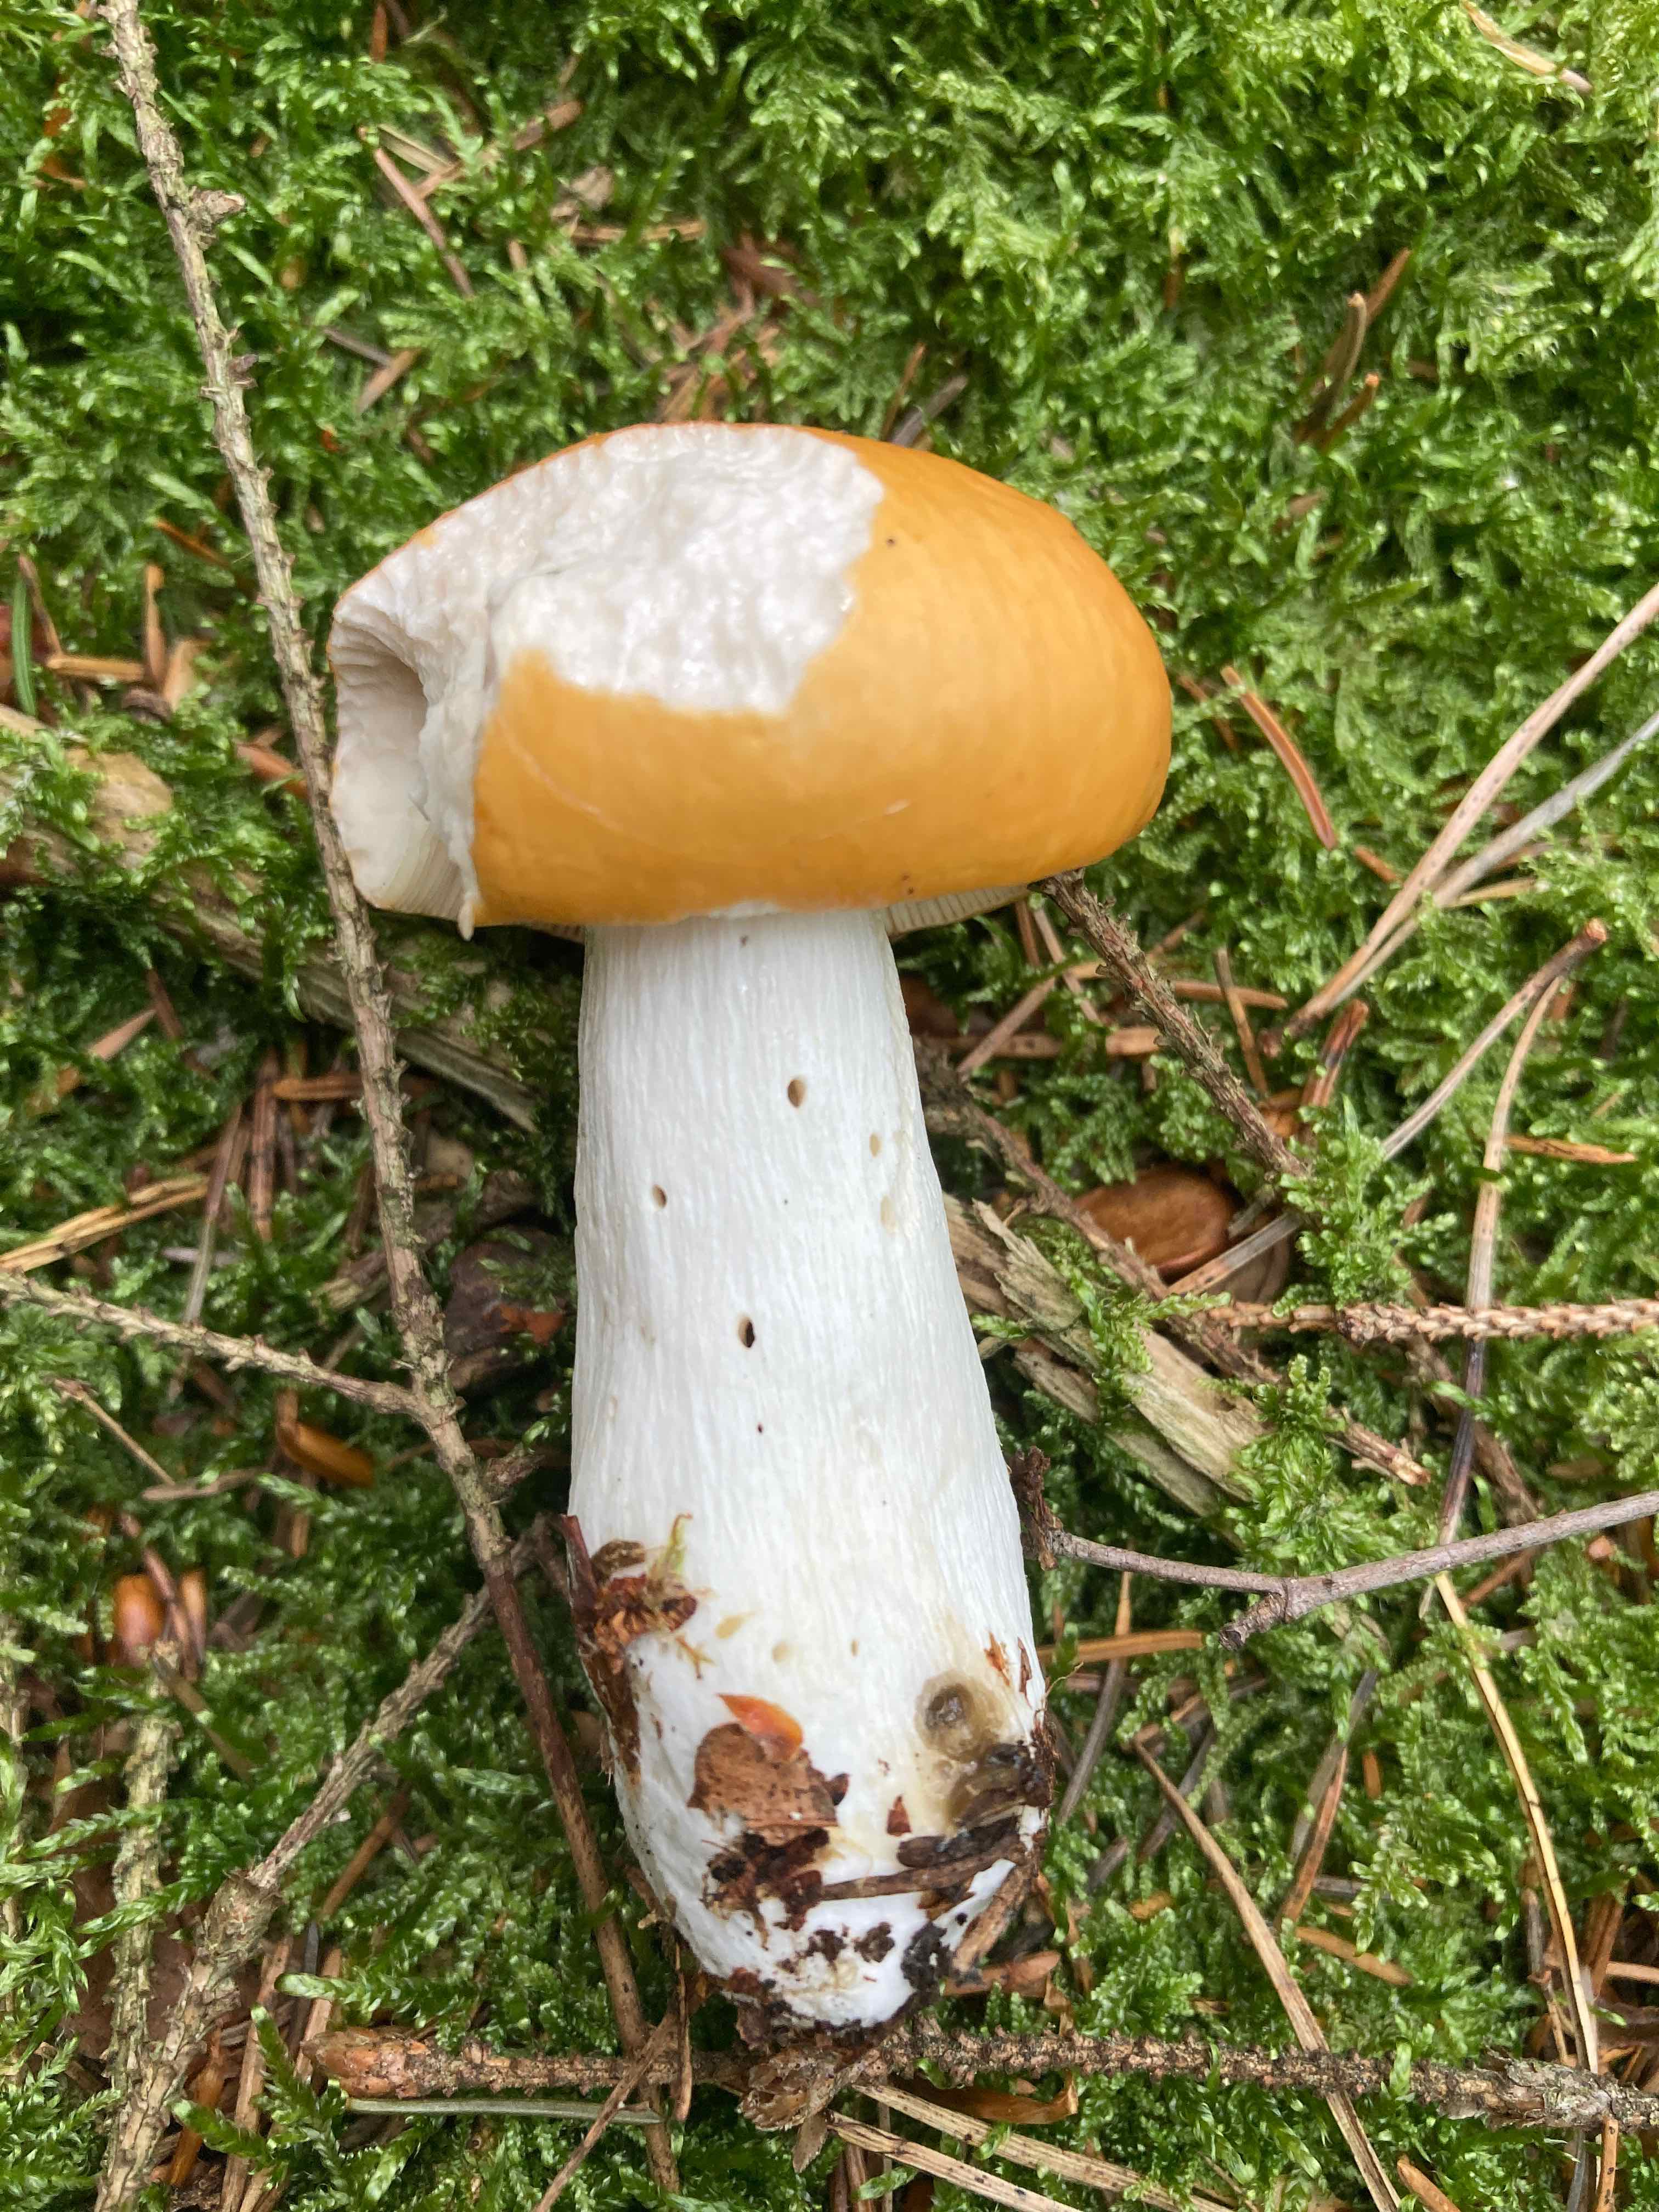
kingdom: Fungi
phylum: Basidiomycota
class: Agaricomycetes
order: Russulales
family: Russulaceae
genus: Russula
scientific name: Russula
